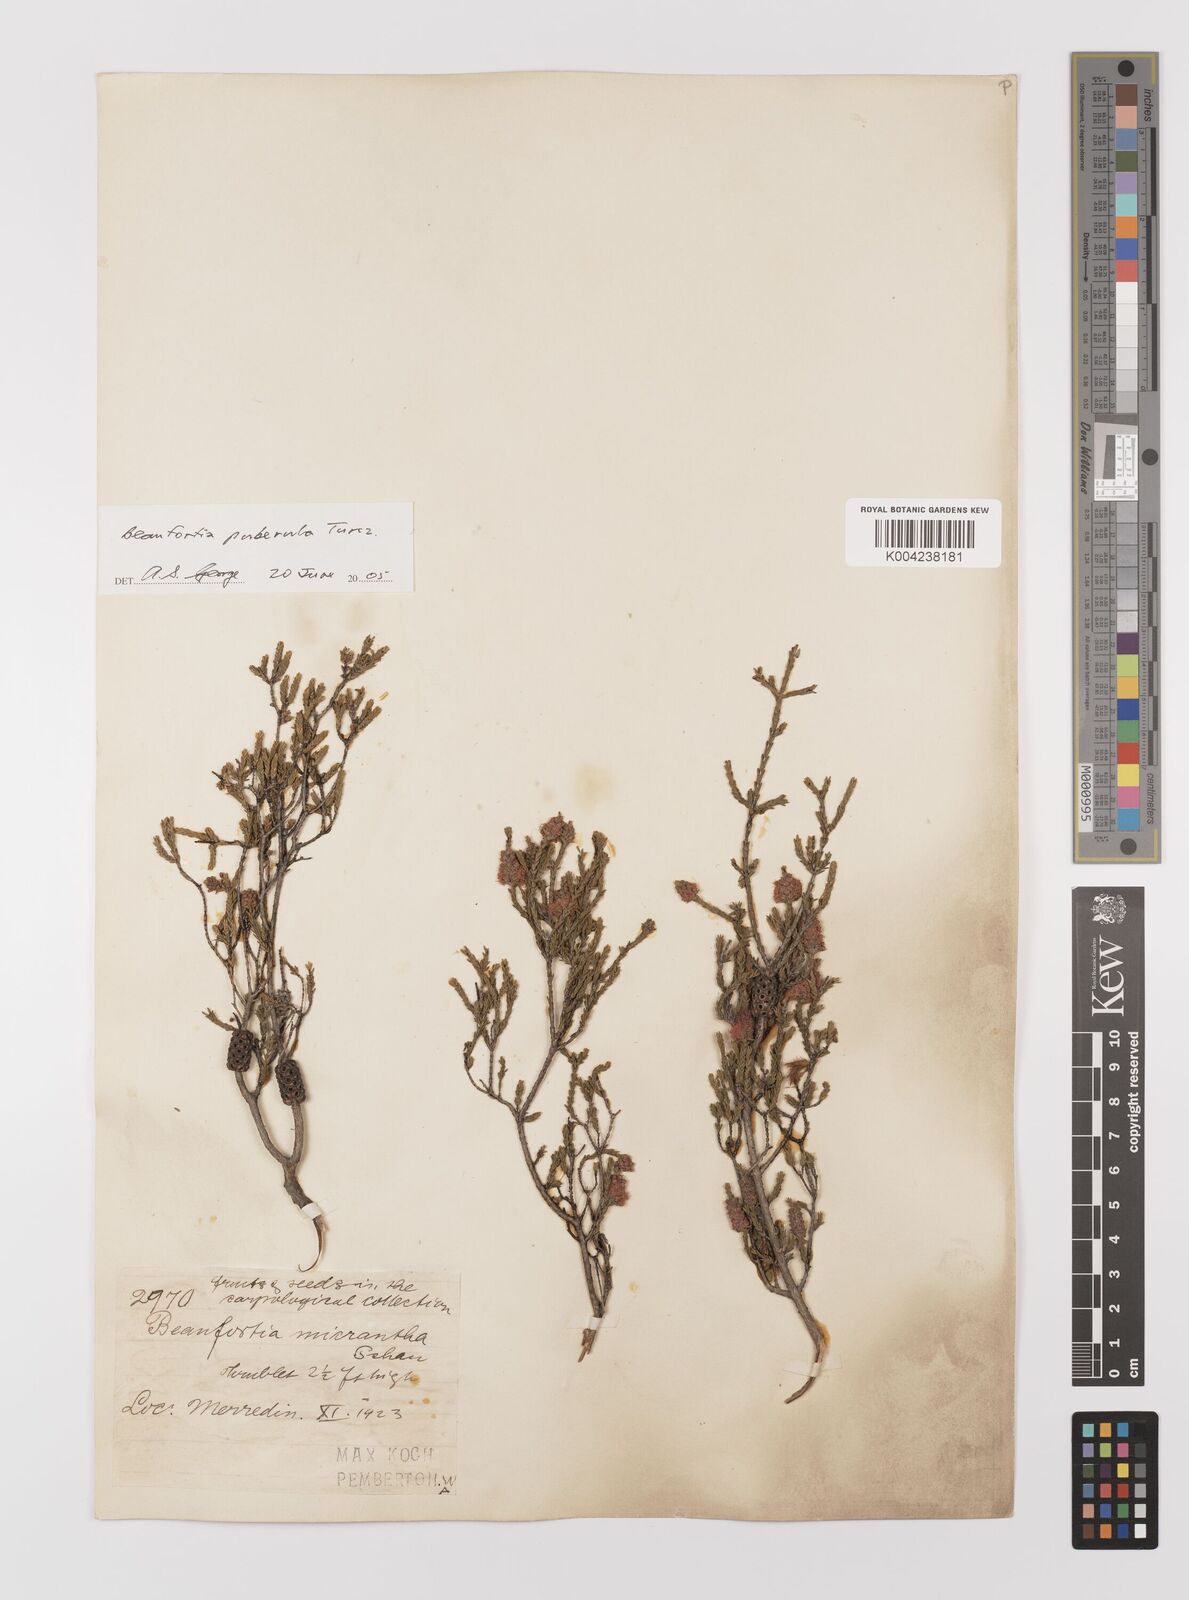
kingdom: Plantae
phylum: Tracheophyta
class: Magnoliopsida
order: Myrtales
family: Myrtaceae
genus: Melaleuca
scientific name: Melaleuca micrantha
